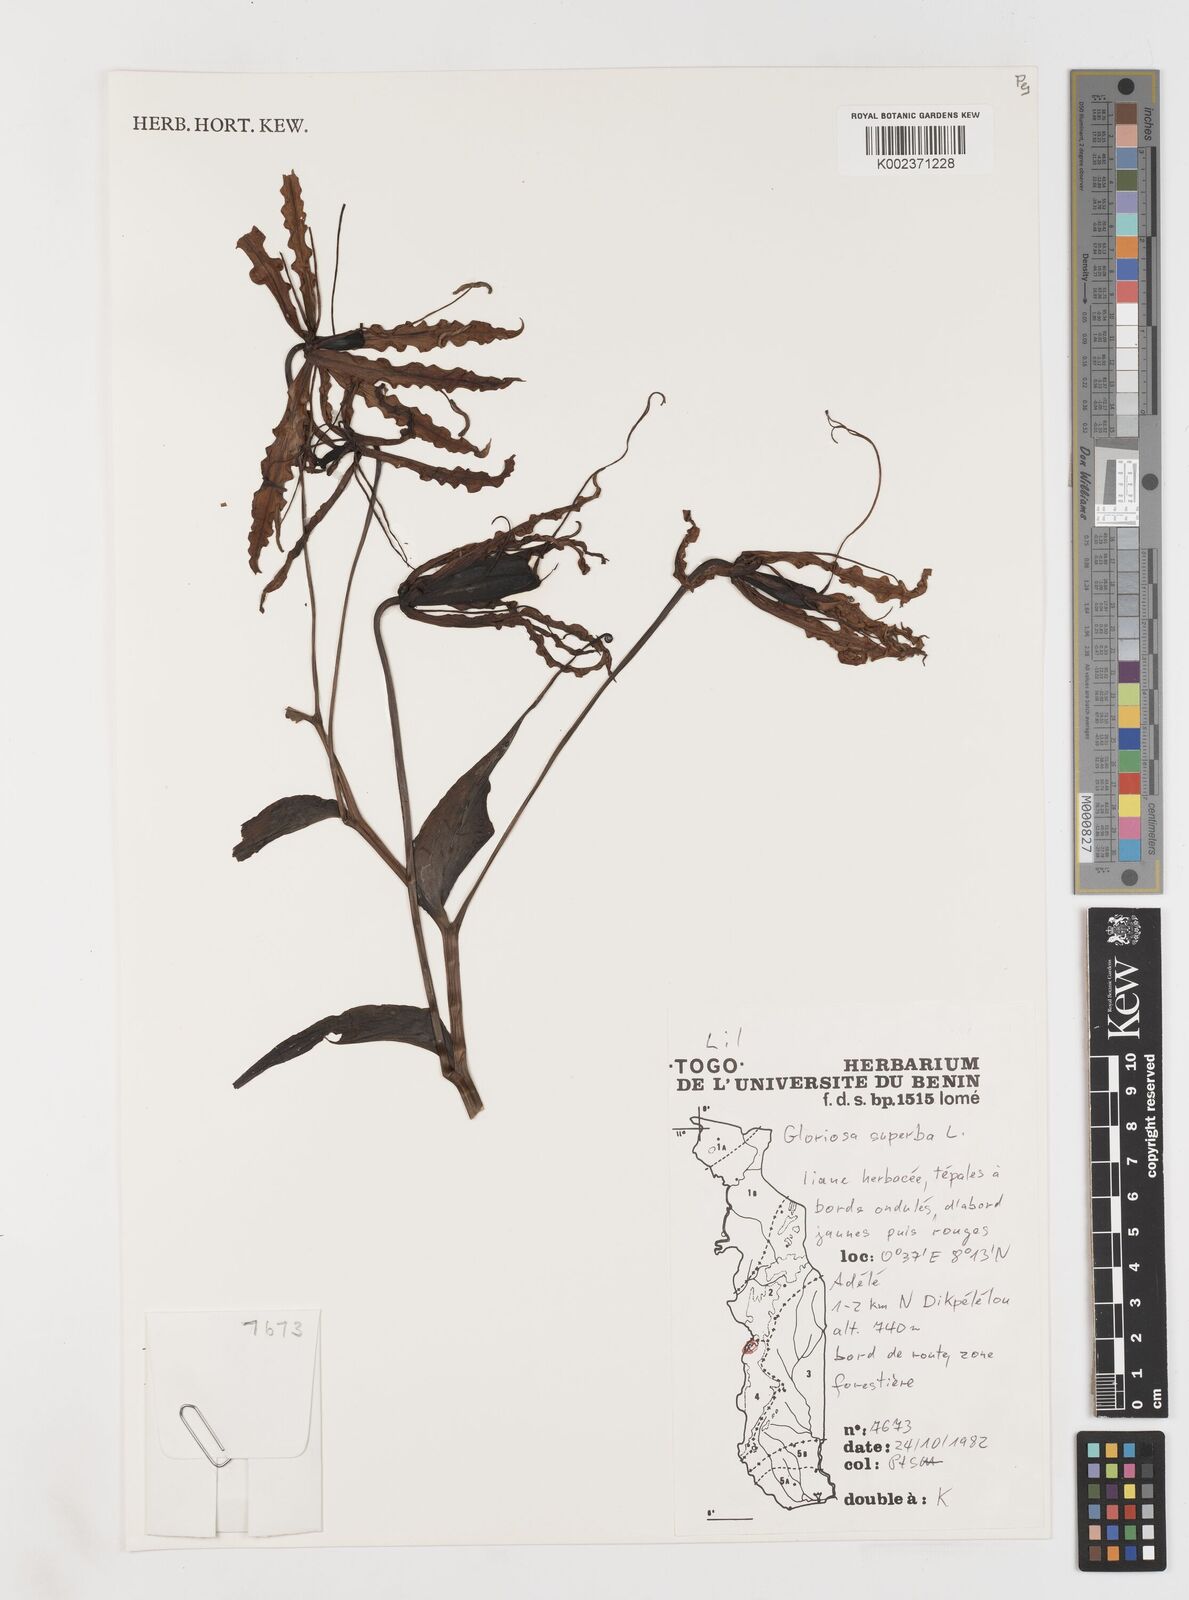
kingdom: Plantae
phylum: Tracheophyta
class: Liliopsida
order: Liliales
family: Colchicaceae
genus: Gloriosa
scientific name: Gloriosa superba
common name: Flame lily
